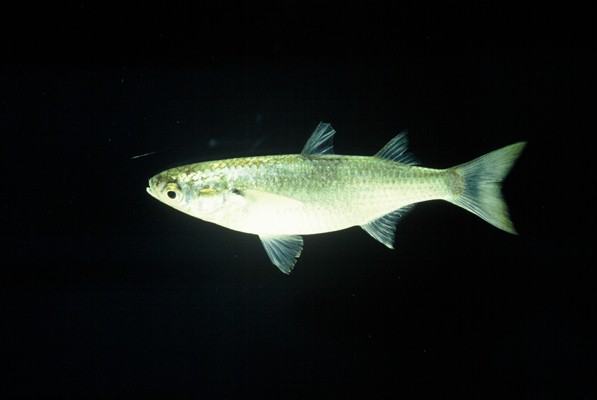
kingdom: Animalia
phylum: Chordata
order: Mugiliformes
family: Mugilidae
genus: Osteomugil
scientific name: Osteomugil cunnesius
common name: Longarm mullet
